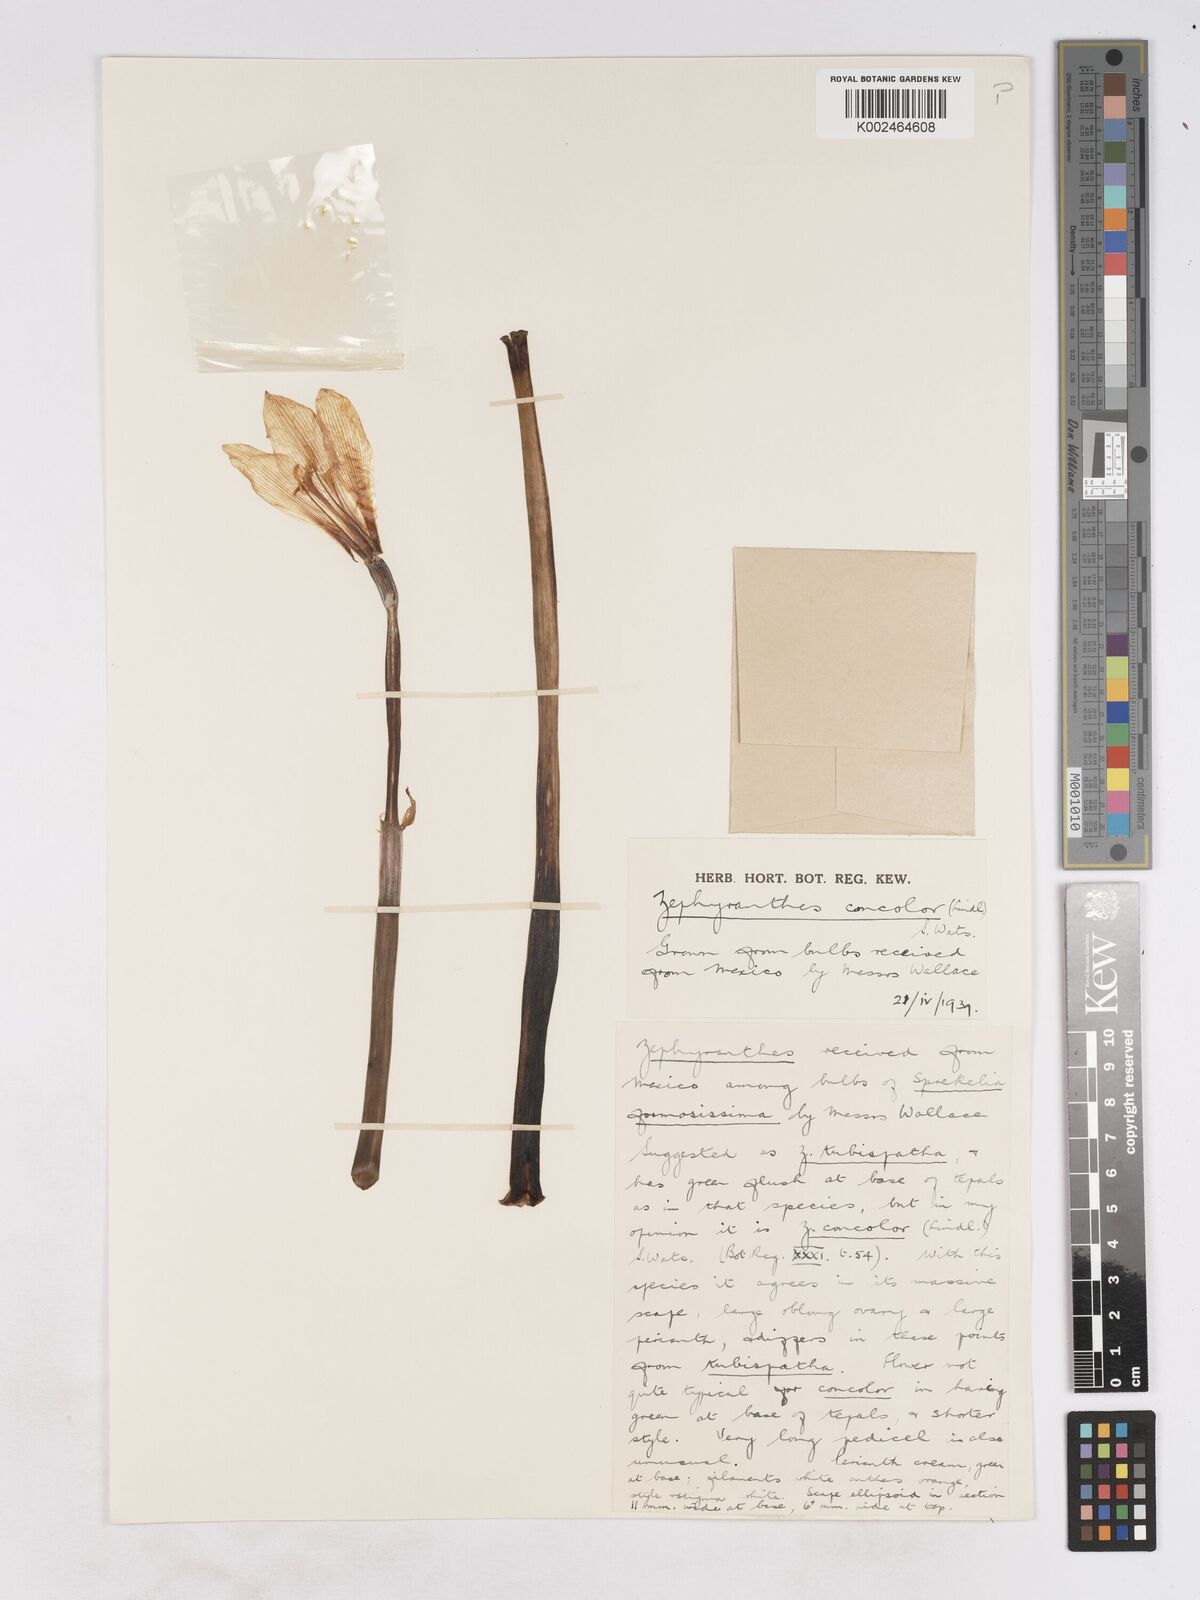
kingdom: Plantae
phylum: Tracheophyta
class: Liliopsida
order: Asparagales
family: Amaryllidaceae
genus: Zephyranthes
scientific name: Zephyranthes concolor
